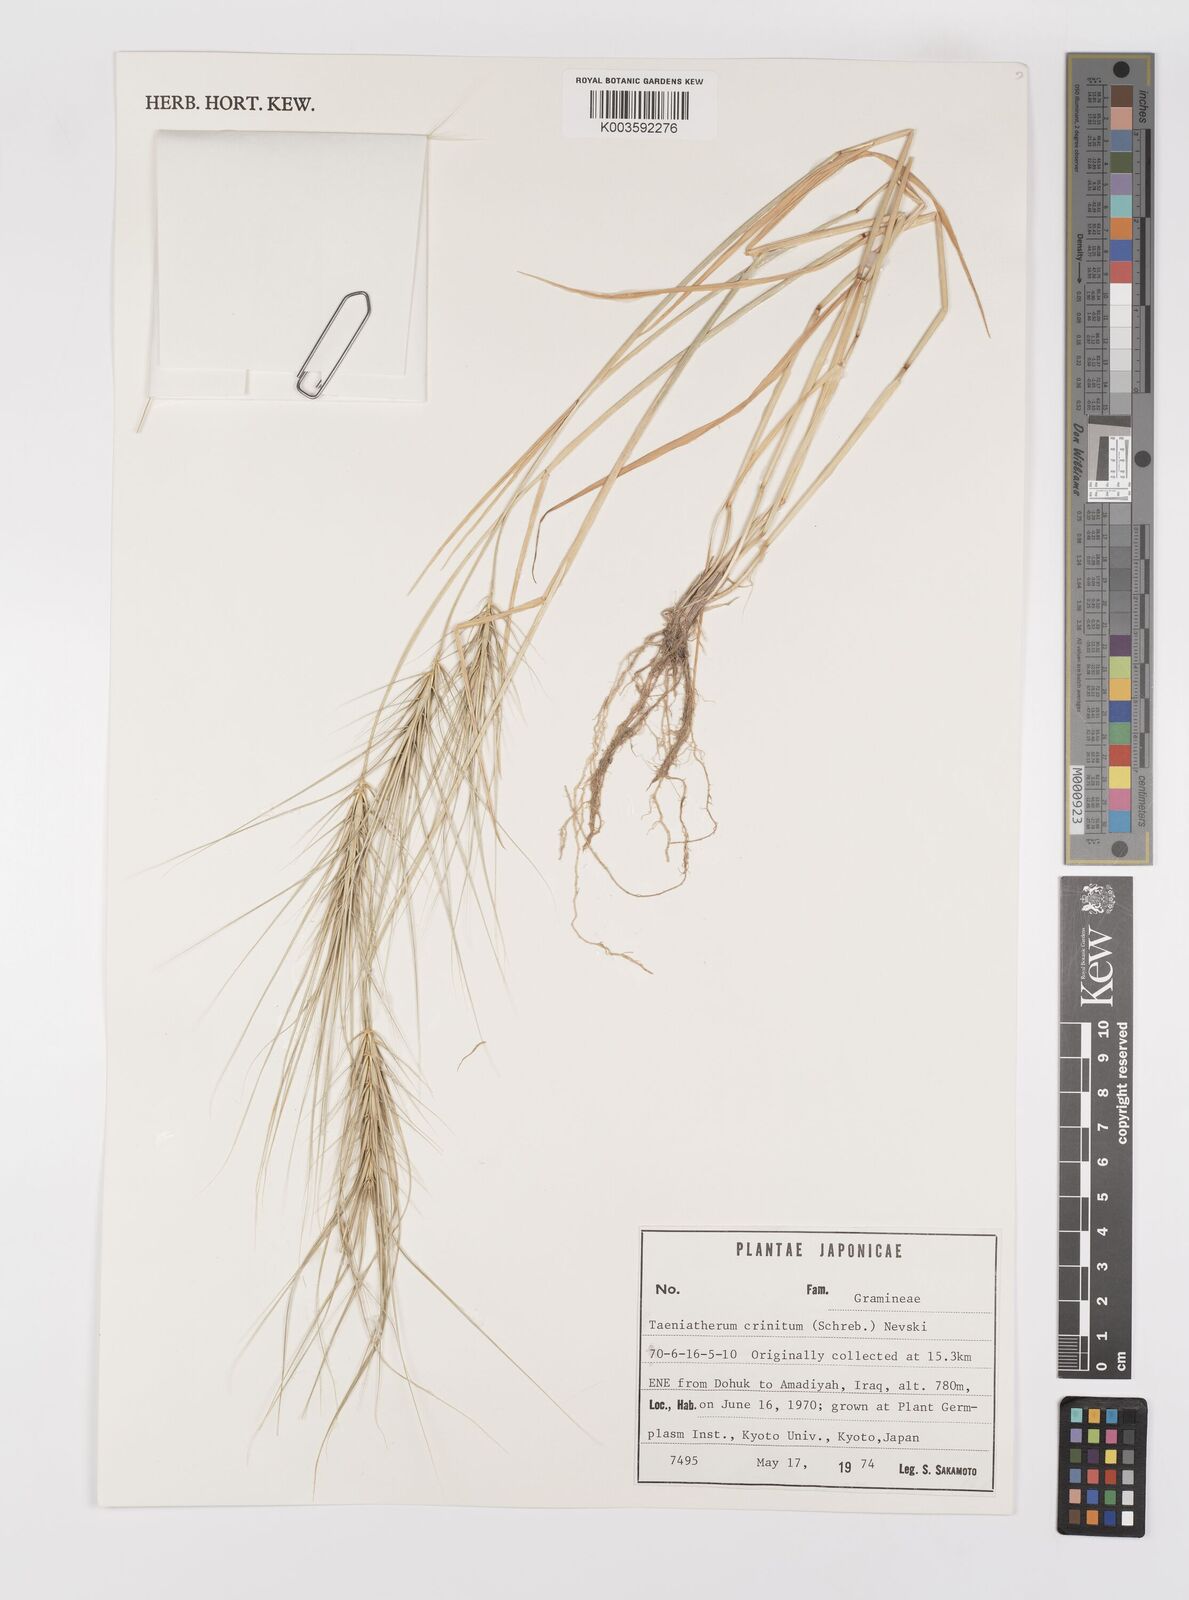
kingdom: Plantae
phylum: Tracheophyta
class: Liliopsida
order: Poales
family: Poaceae
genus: Taeniatherum
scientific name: Taeniatherum caput-medusae
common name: Medusahead
